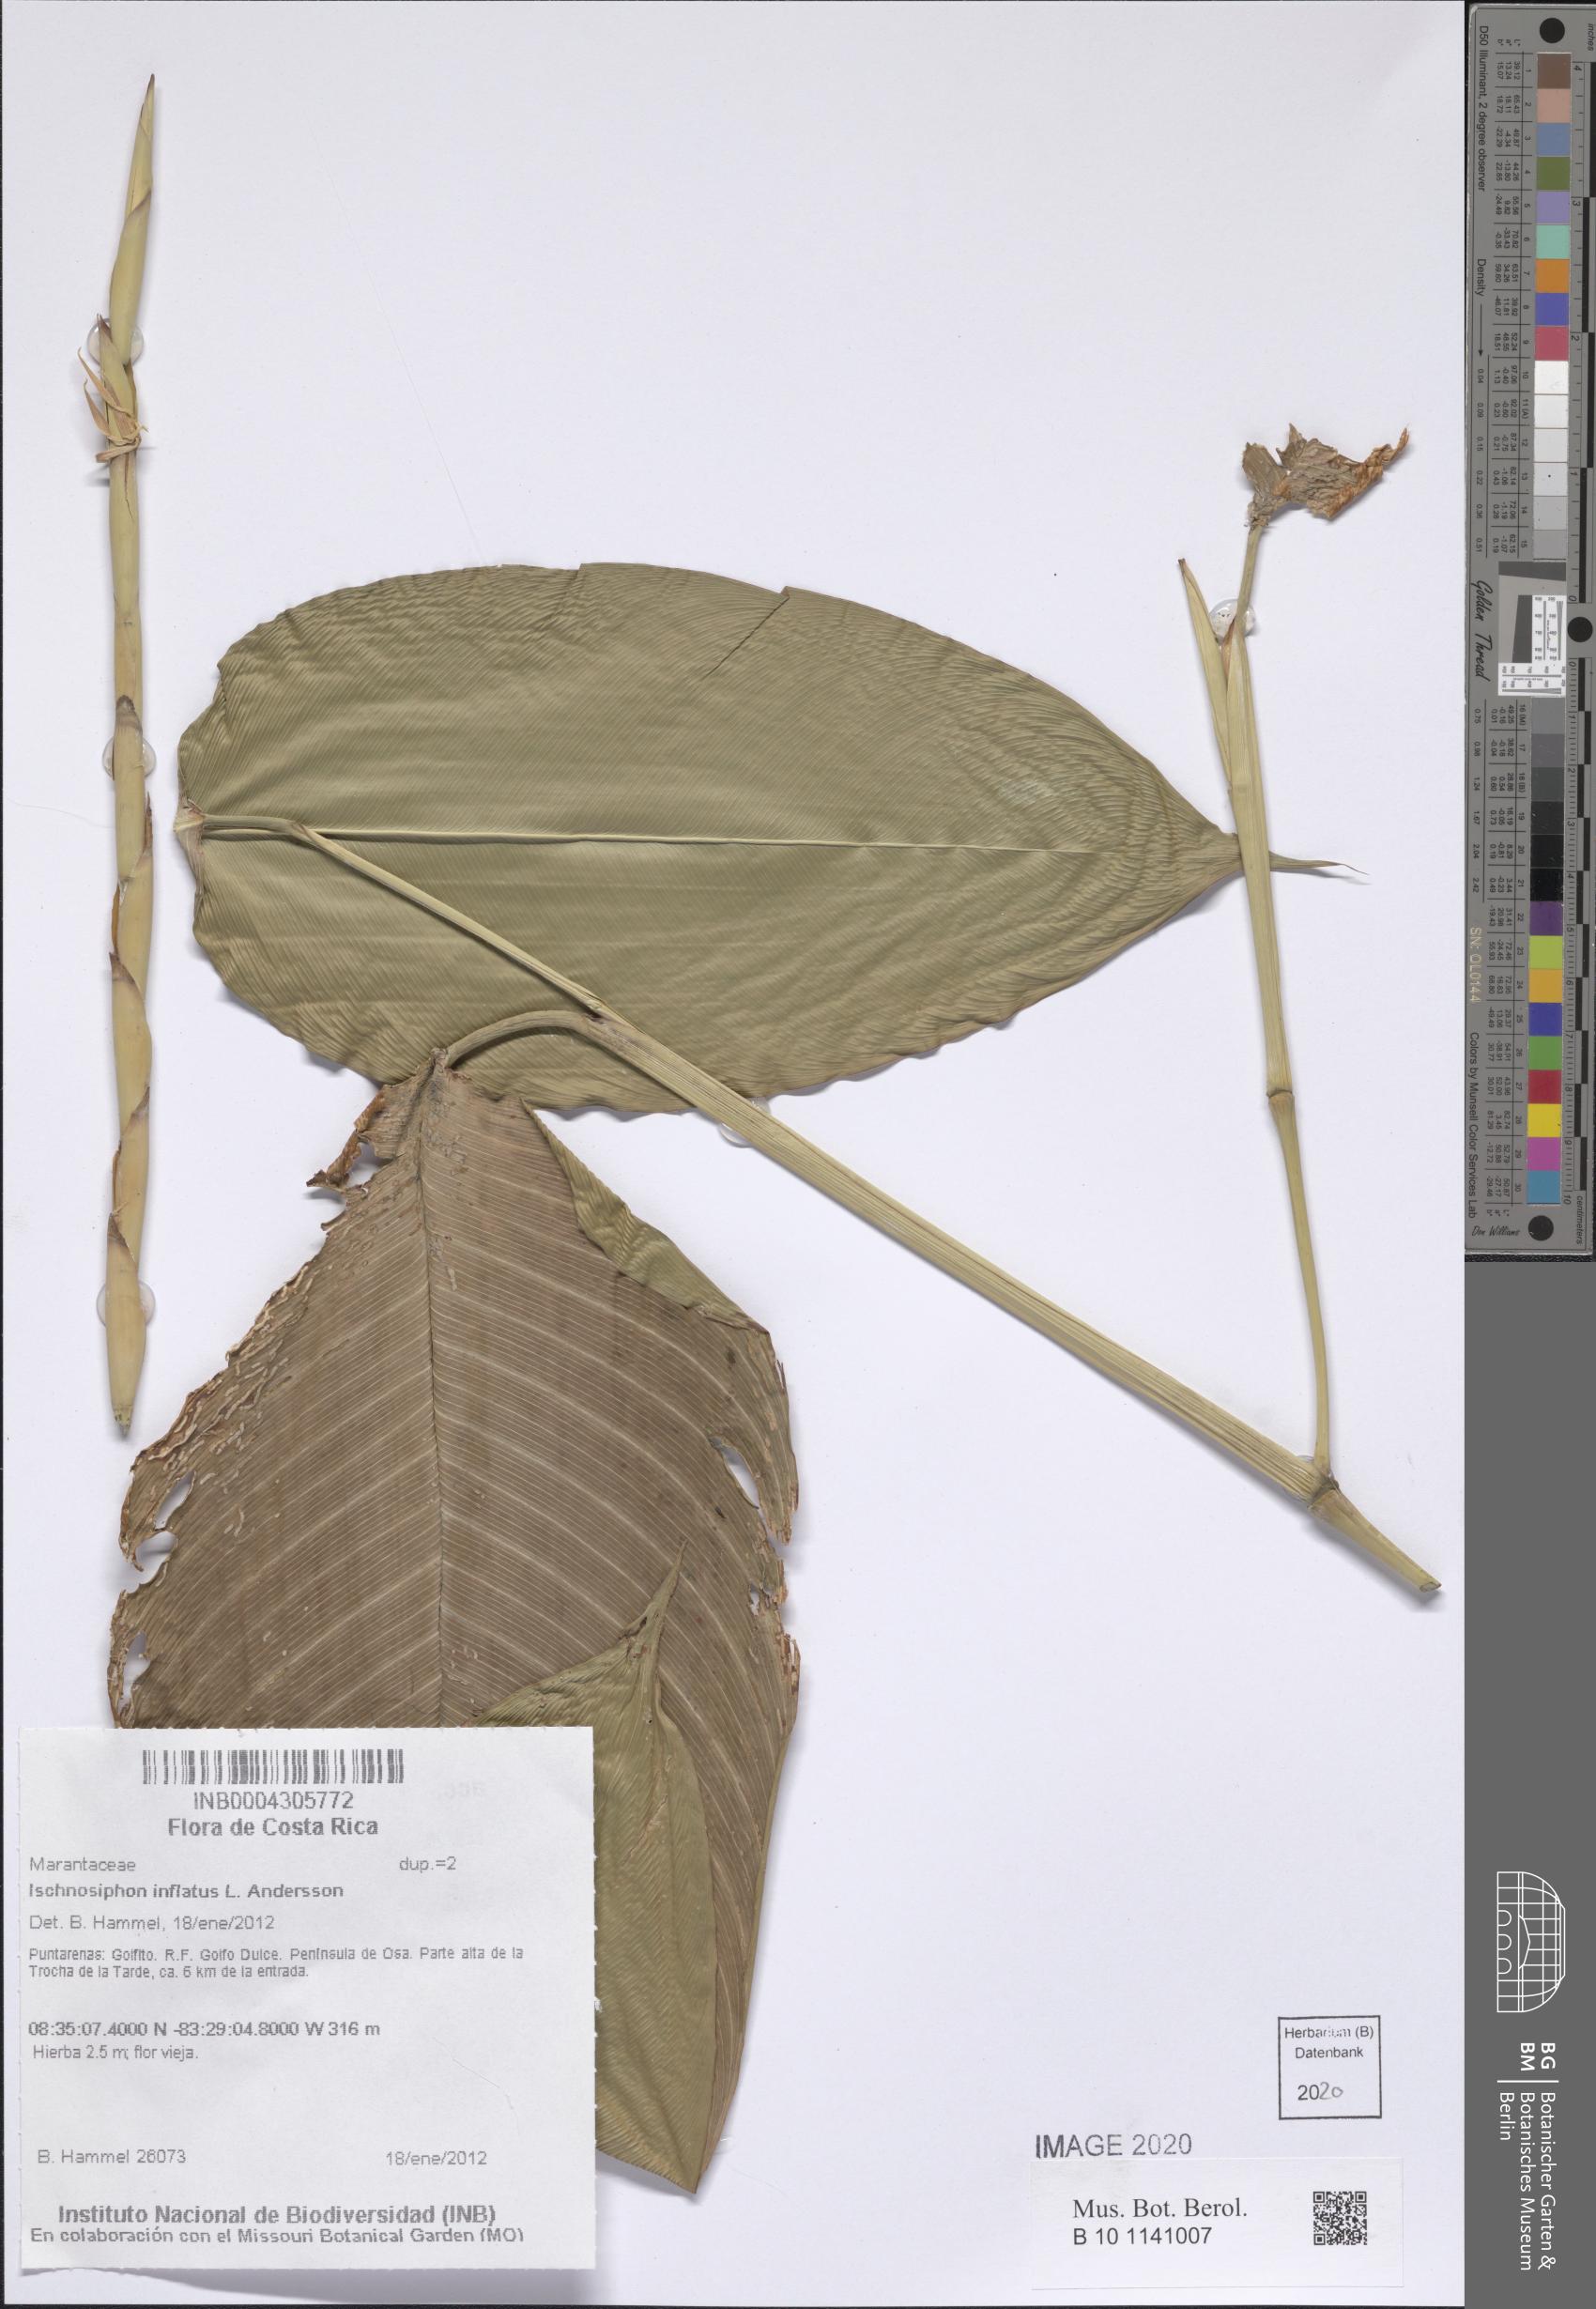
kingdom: Plantae
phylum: Tracheophyta
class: Liliopsida
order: Zingiberales
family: Marantaceae
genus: Ischnosiphon
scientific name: Ischnosiphon inflatus
